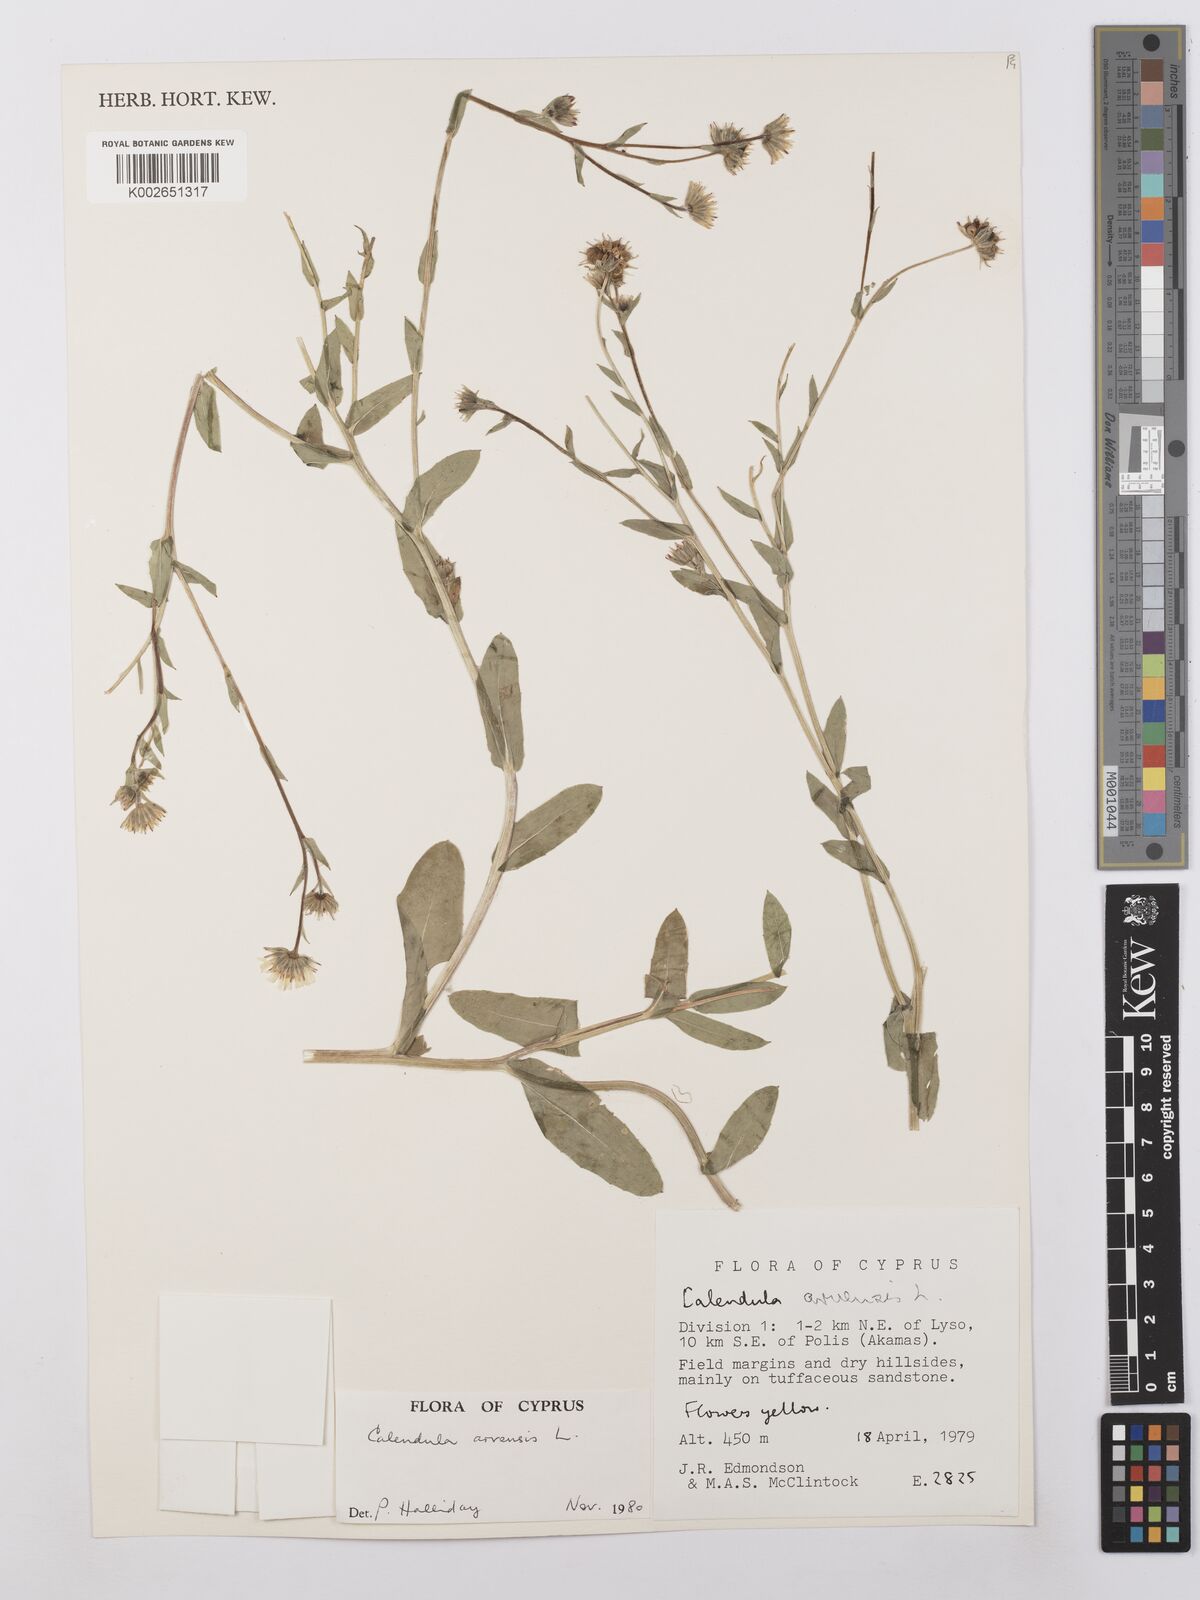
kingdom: Plantae
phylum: Tracheophyta
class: Magnoliopsida
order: Asterales
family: Asteraceae
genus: Calendula
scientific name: Calendula arvensis
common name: Field marigold
